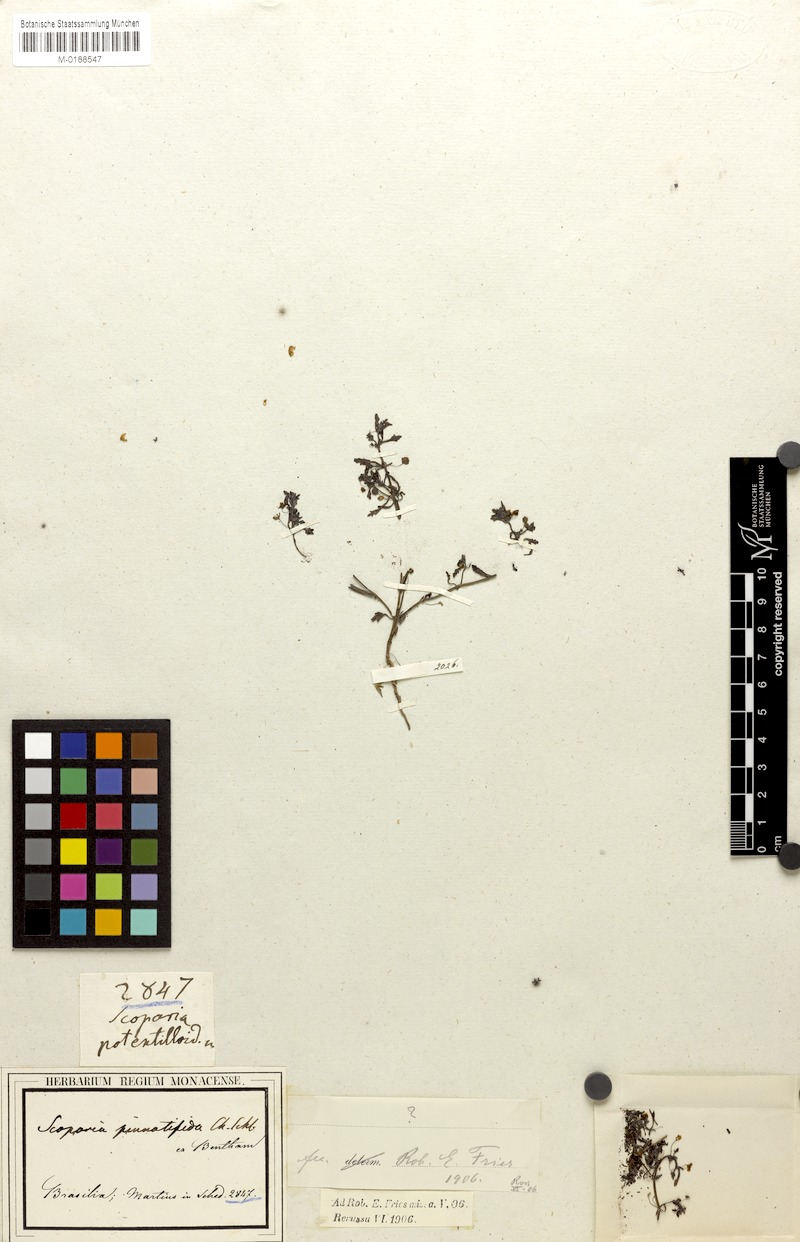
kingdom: Plantae
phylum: Tracheophyta
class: Magnoliopsida
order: Lamiales
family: Plantaginaceae
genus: Scoparia
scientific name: Scoparia pinnatifida
